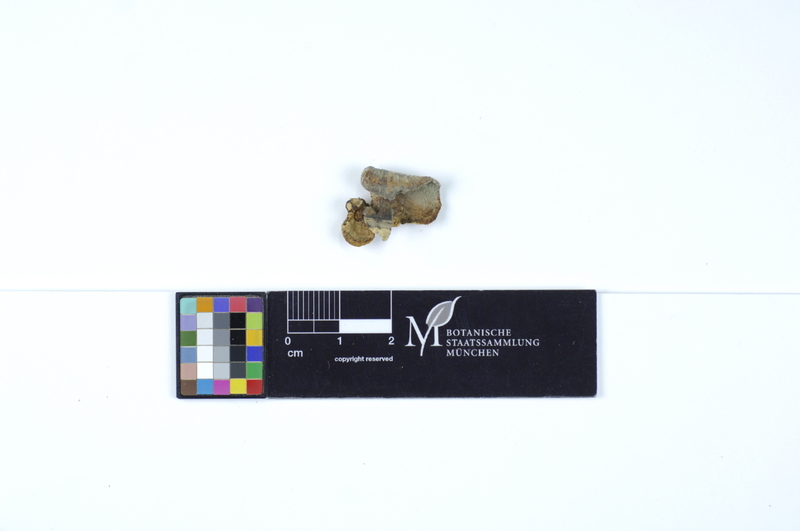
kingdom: Plantae
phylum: Tracheophyta
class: Magnoliopsida
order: Fagales
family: Fagaceae
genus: Fagus
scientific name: Fagus sylvatica
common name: Beech
